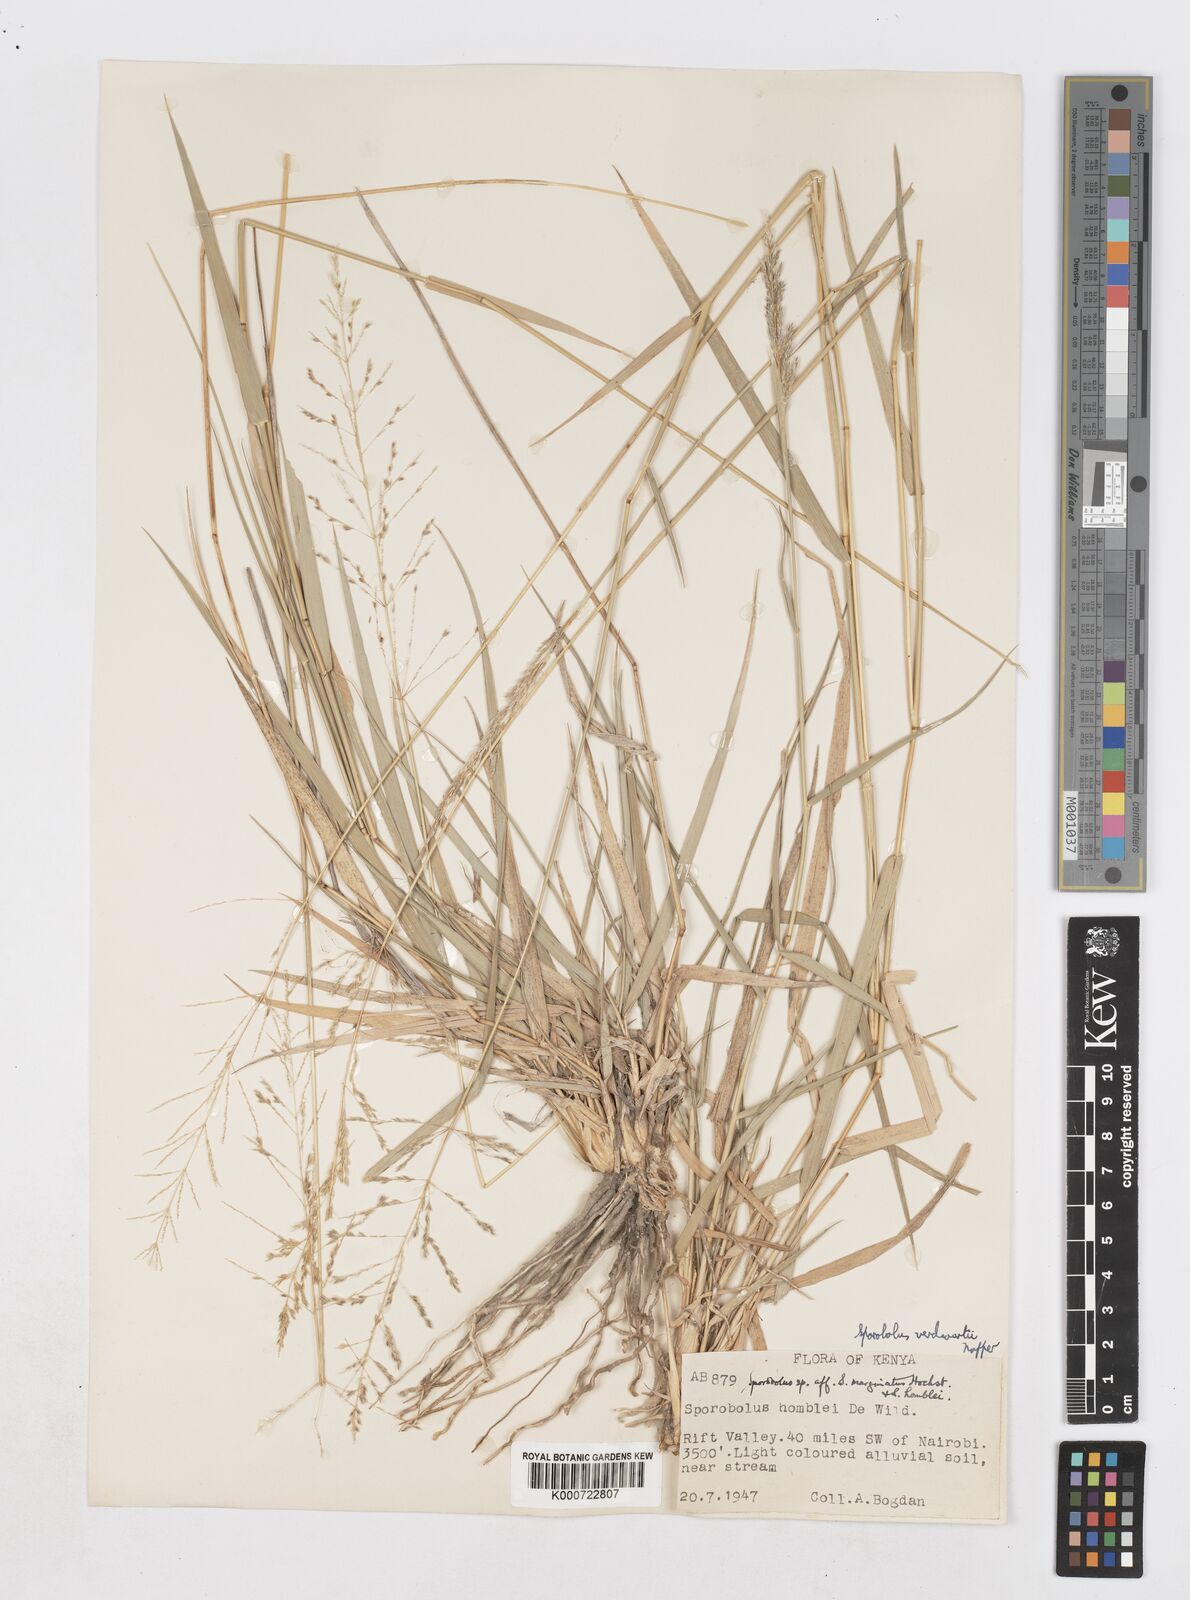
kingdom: Plantae
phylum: Tracheophyta
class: Liliopsida
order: Poales
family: Poaceae
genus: Sporobolus
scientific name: Sporobolus ioclados
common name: Pan dropseed
